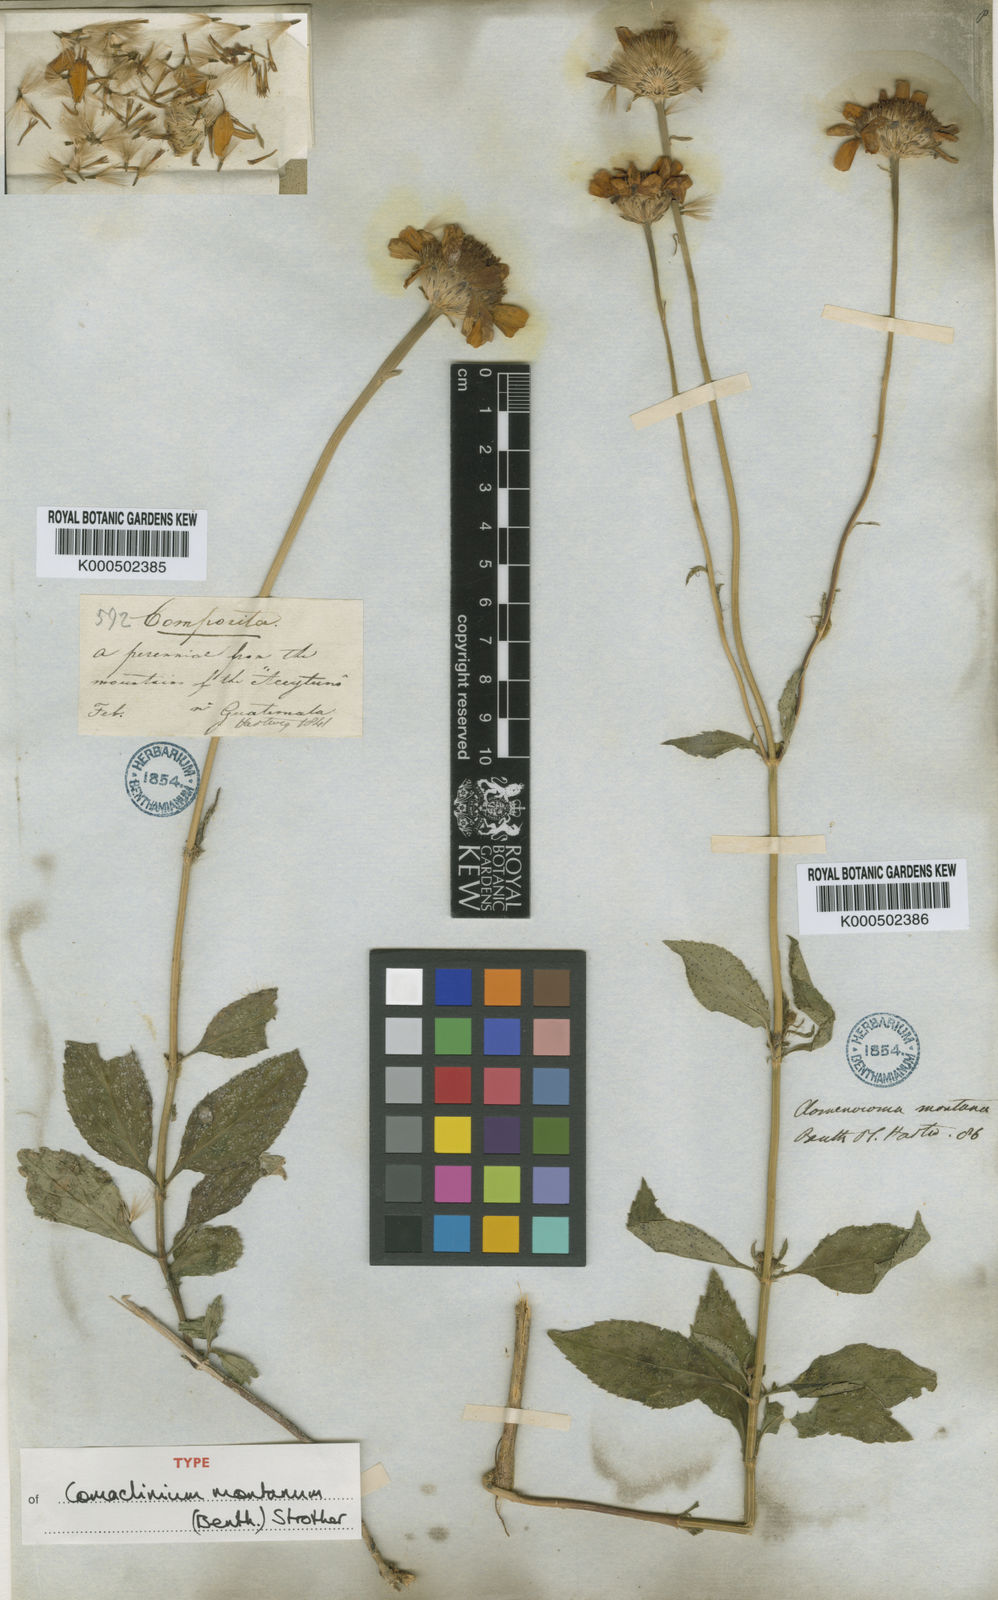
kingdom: Plantae
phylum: Tracheophyta
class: Magnoliopsida
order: Asterales
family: Asteraceae
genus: Comaclinium
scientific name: Comaclinium montanum
